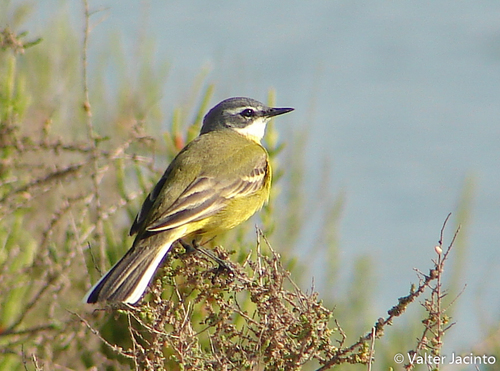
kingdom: Animalia
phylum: Chordata
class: Aves
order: Passeriformes
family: Motacillidae
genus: Motacilla
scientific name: Motacilla flava
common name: Western yellow wagtail
